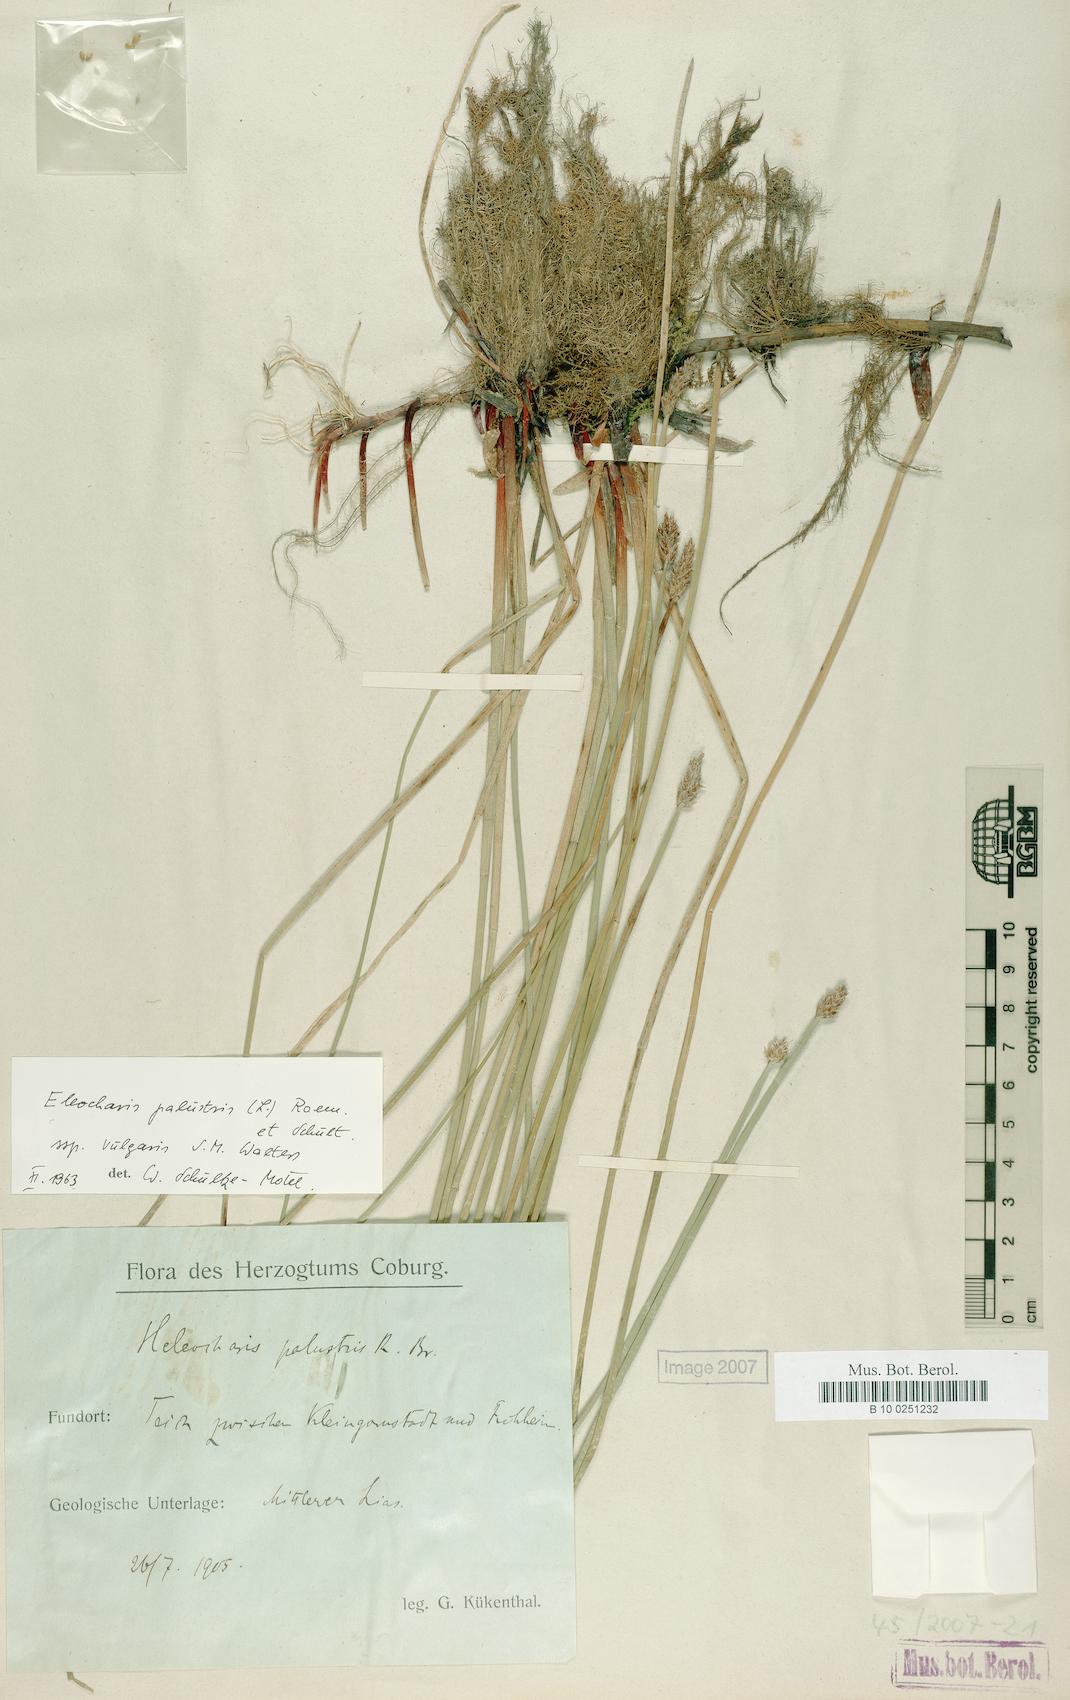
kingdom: Plantae
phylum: Tracheophyta
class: Liliopsida
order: Poales
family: Cyperaceae
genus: Eleocharis
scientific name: Eleocharis palustris
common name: Common spike-rush
